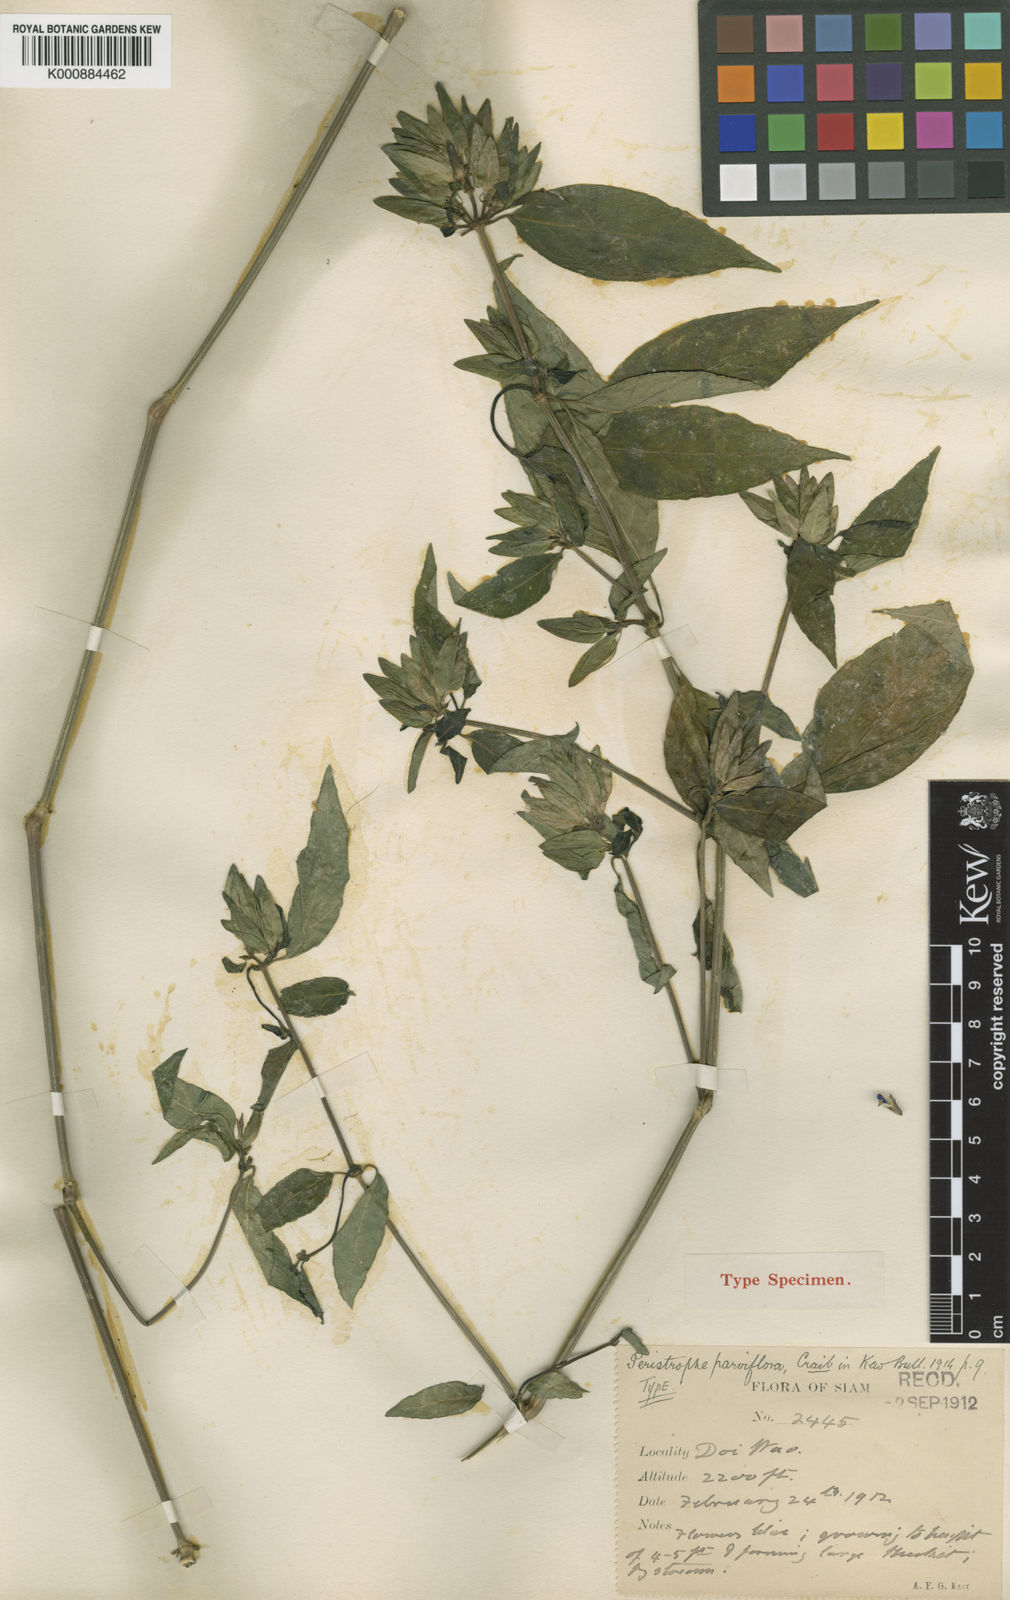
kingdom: Plantae
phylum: Tracheophyta
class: Magnoliopsida
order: Lamiales
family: Acanthaceae
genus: Dicliptera
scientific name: Dicliptera
